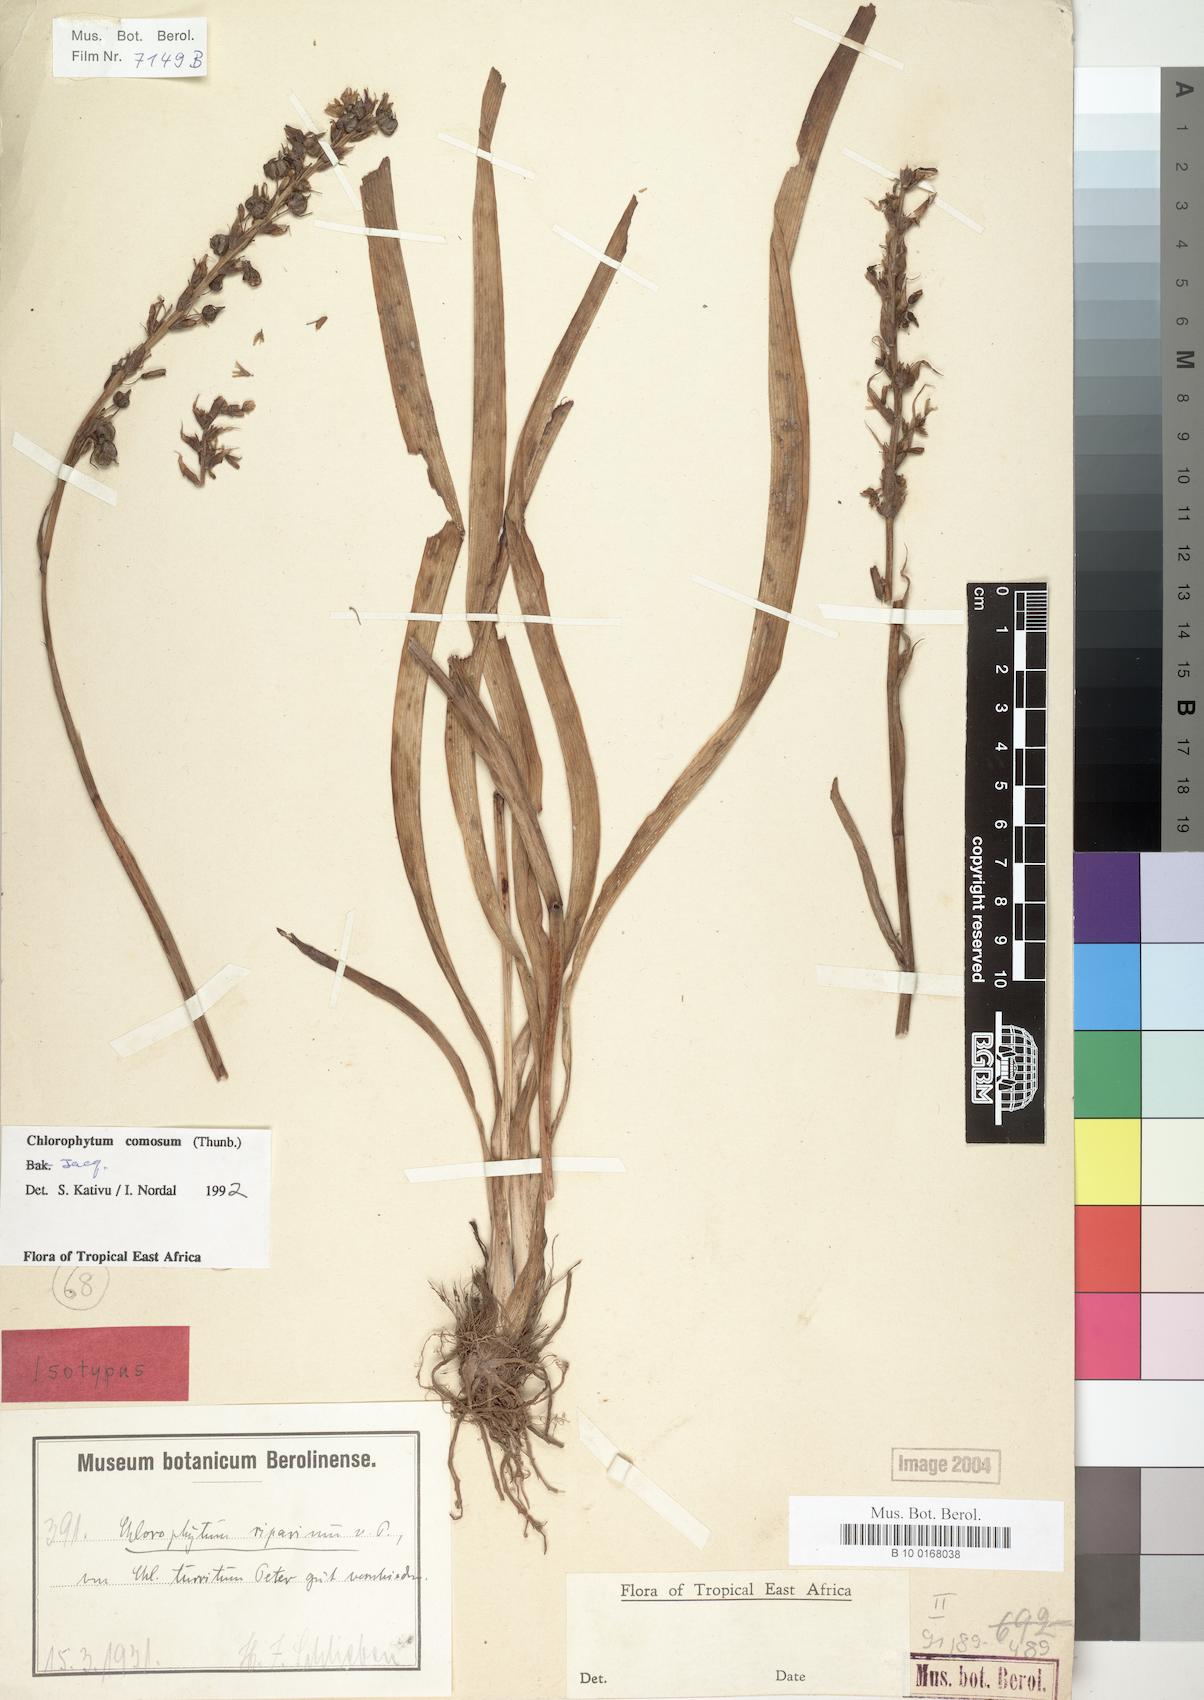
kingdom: Plantae
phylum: Tracheophyta
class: Liliopsida
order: Asparagales
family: Asparagaceae
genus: Chlorophytum
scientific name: Chlorophytum comosum
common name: Spider plant
